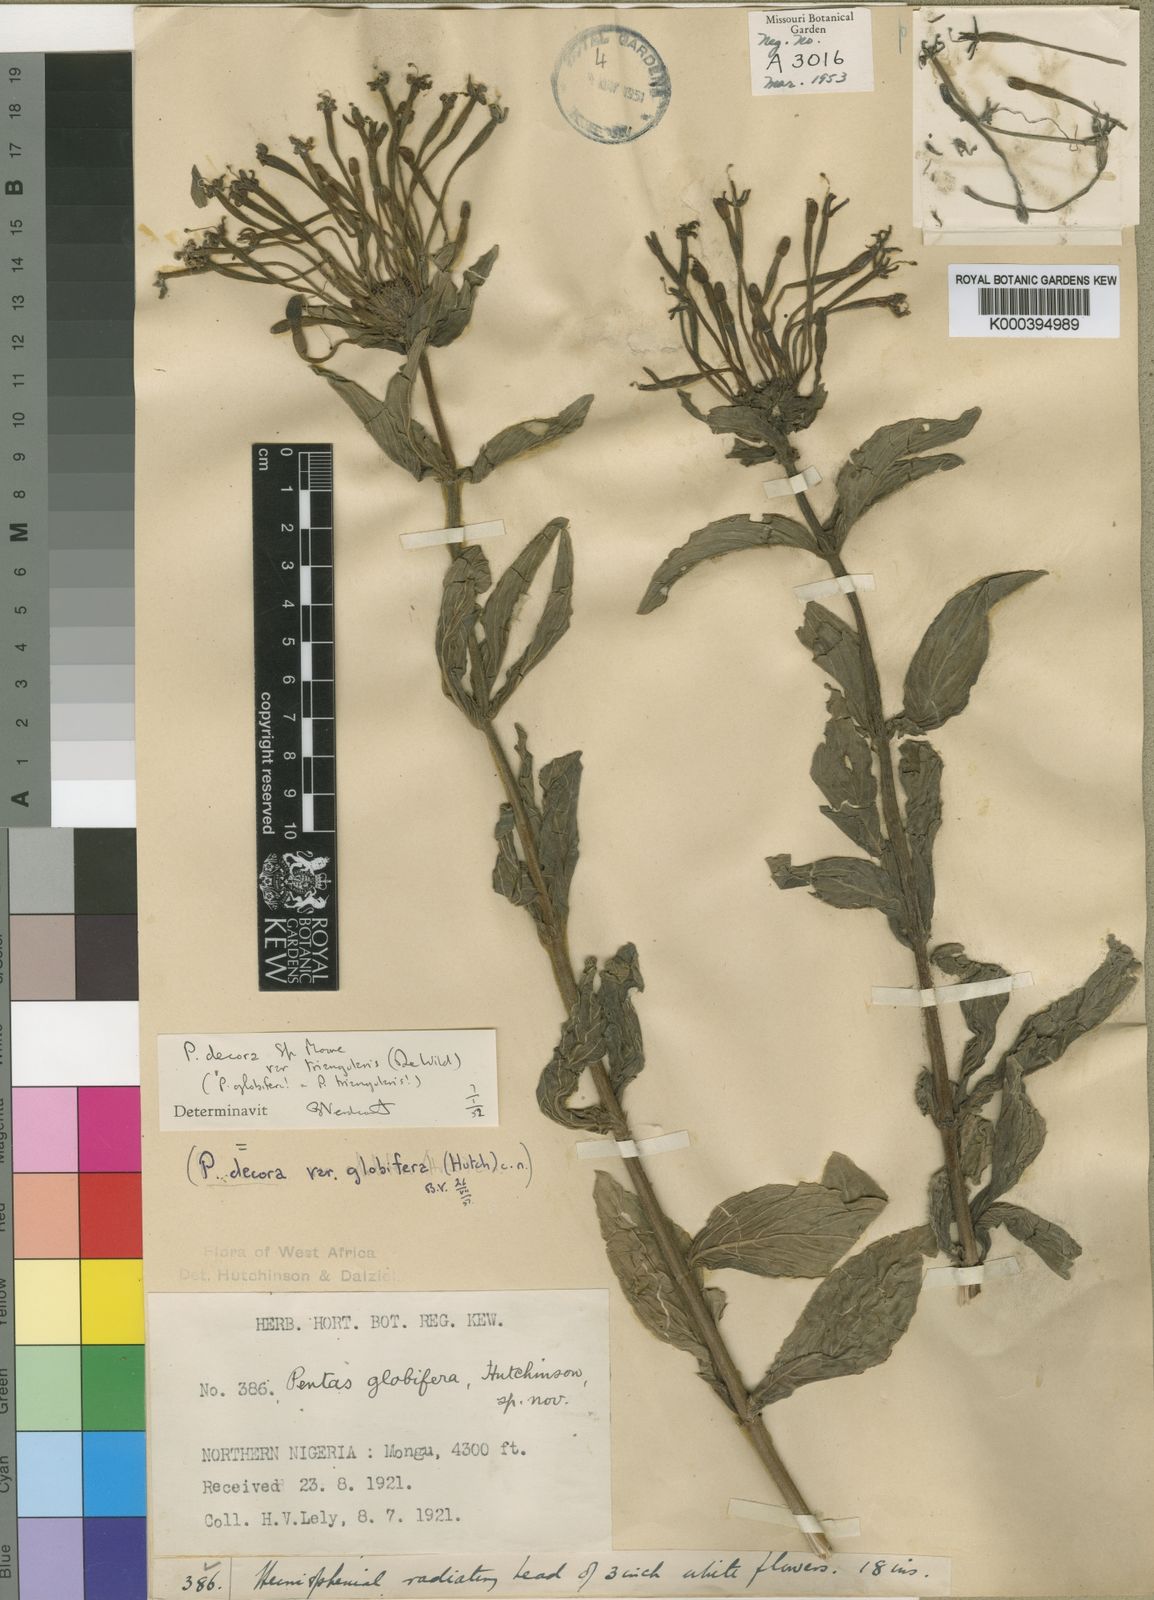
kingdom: Plantae
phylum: Tracheophyta
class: Magnoliopsida
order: Gentianales
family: Rubiaceae
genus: Dolichopentas
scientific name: Dolichopentas
